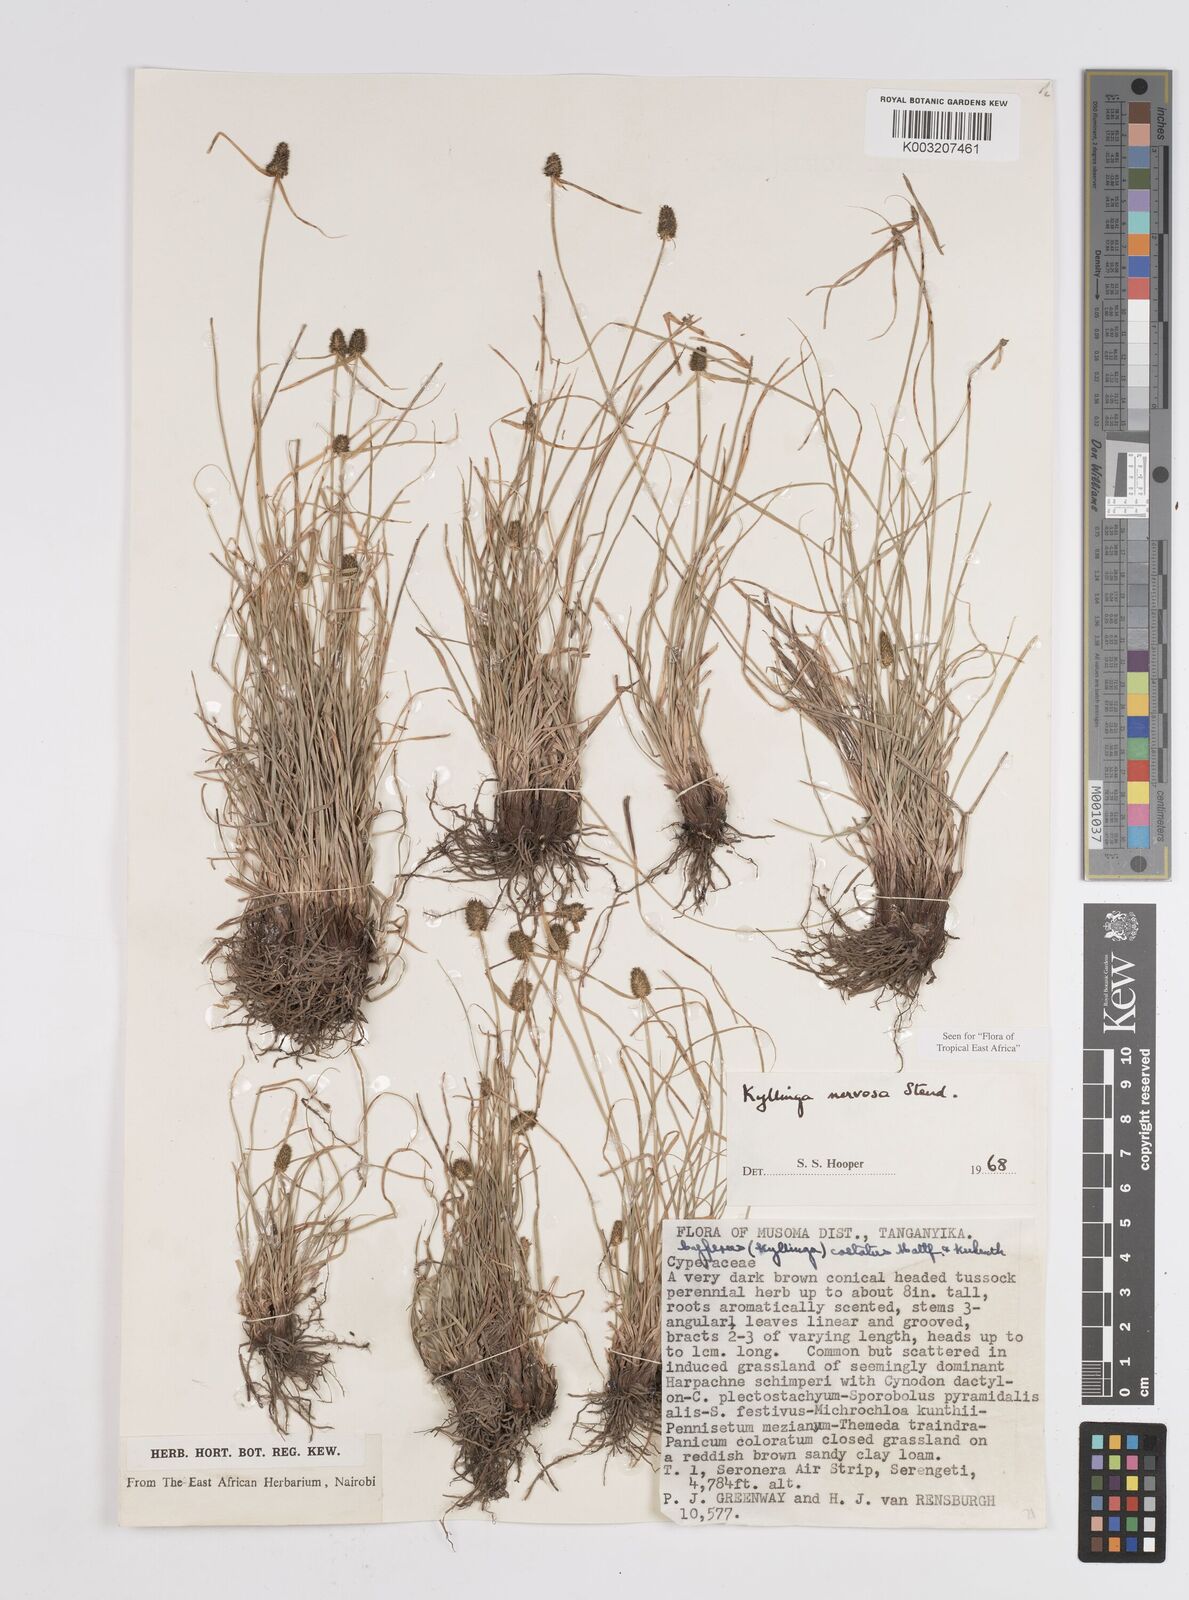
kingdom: Plantae
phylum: Tracheophyta
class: Liliopsida
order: Poales
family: Cyperaceae
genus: Cyperus
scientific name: Cyperus
